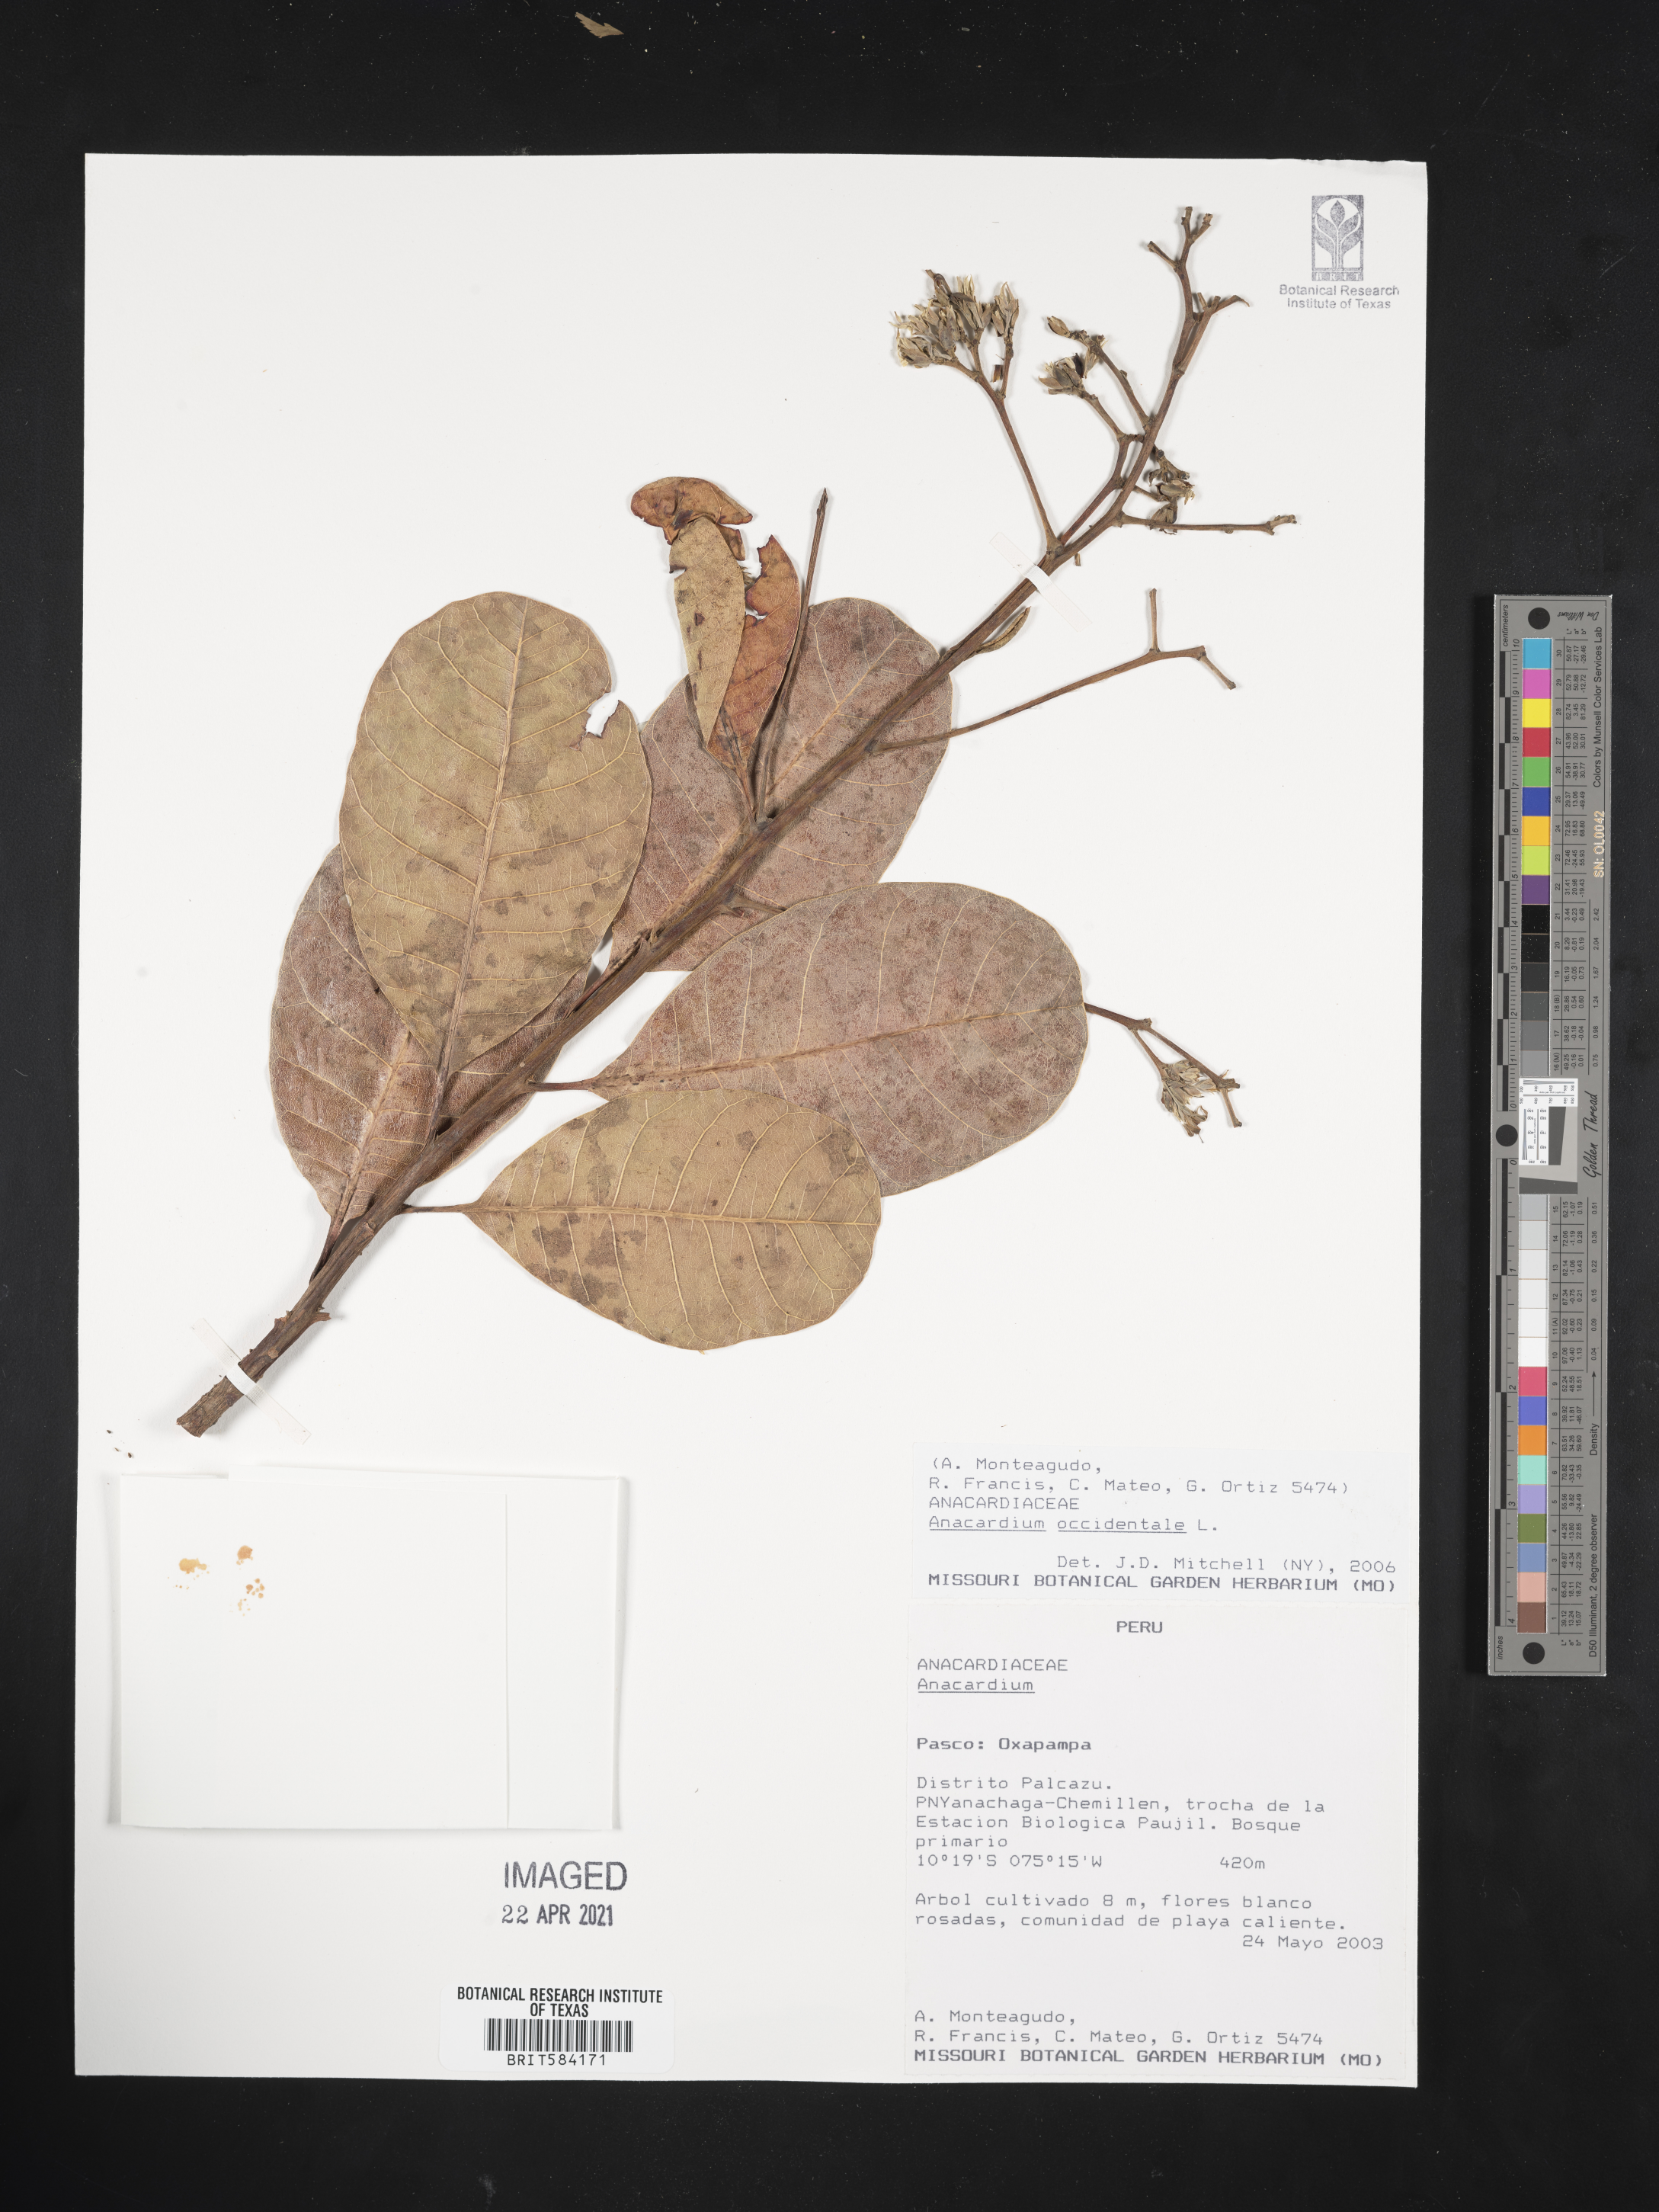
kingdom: Plantae
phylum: Tracheophyta
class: Magnoliopsida
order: Sapindales
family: Anacardiaceae
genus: Anacardium
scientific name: Anacardium occidentale
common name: Cashew
